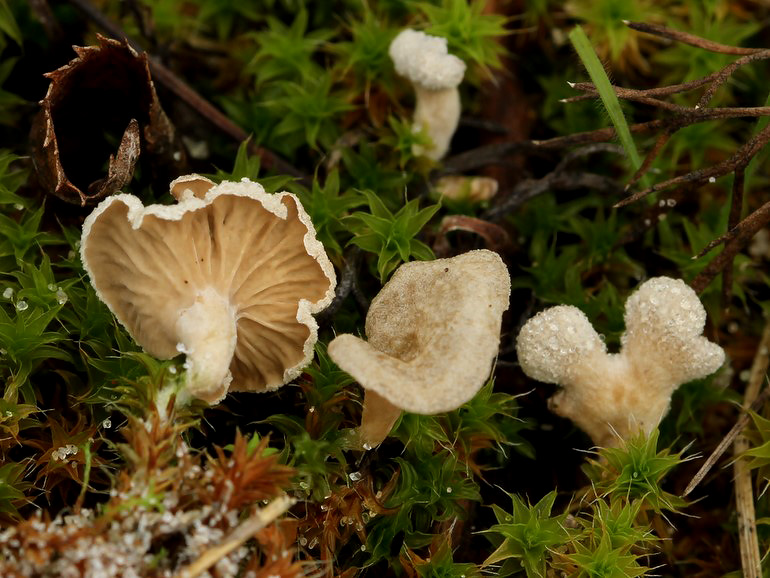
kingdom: Fungi
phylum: Basidiomycota
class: Agaricomycetes
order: Agaricales
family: Hygrophoraceae
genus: Arrhenia
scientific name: Arrhenia spathulata
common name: skæv fontænehat
